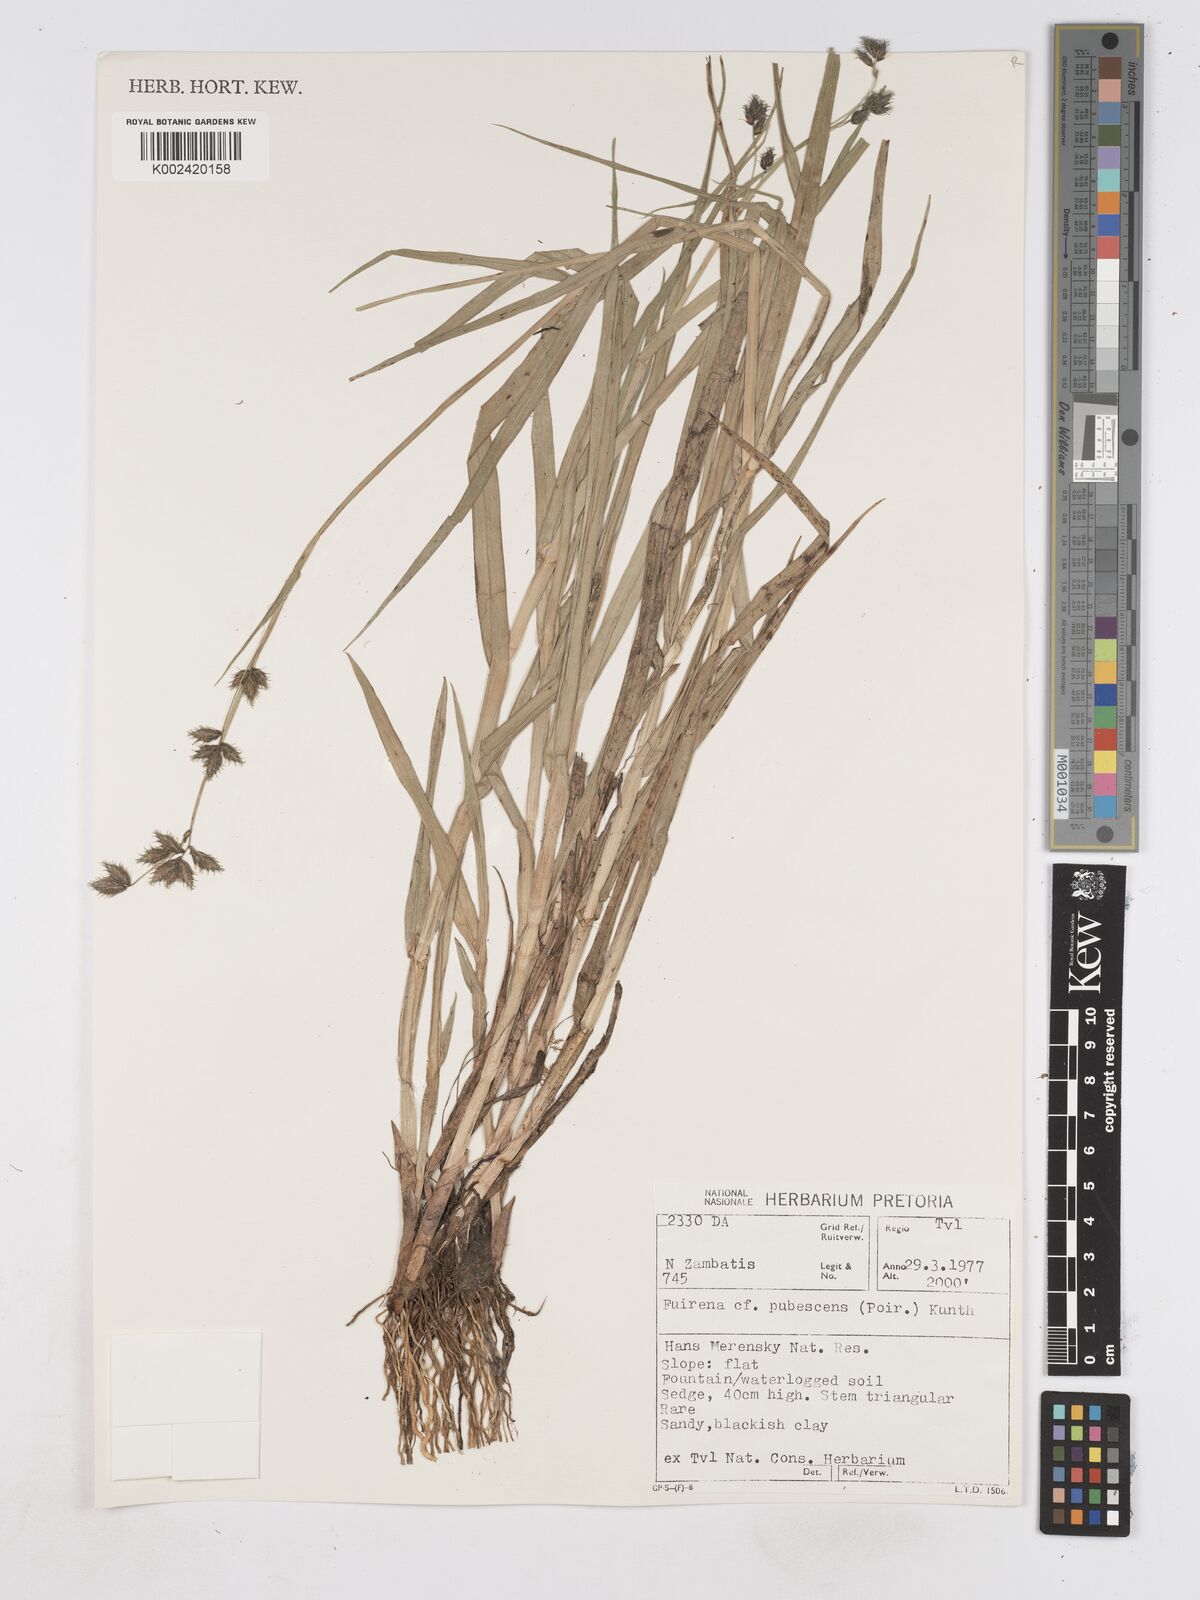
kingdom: Plantae
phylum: Tracheophyta
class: Liliopsida
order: Poales
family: Cyperaceae
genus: Fuirena
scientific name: Fuirena pubescens
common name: Hairy sedge
